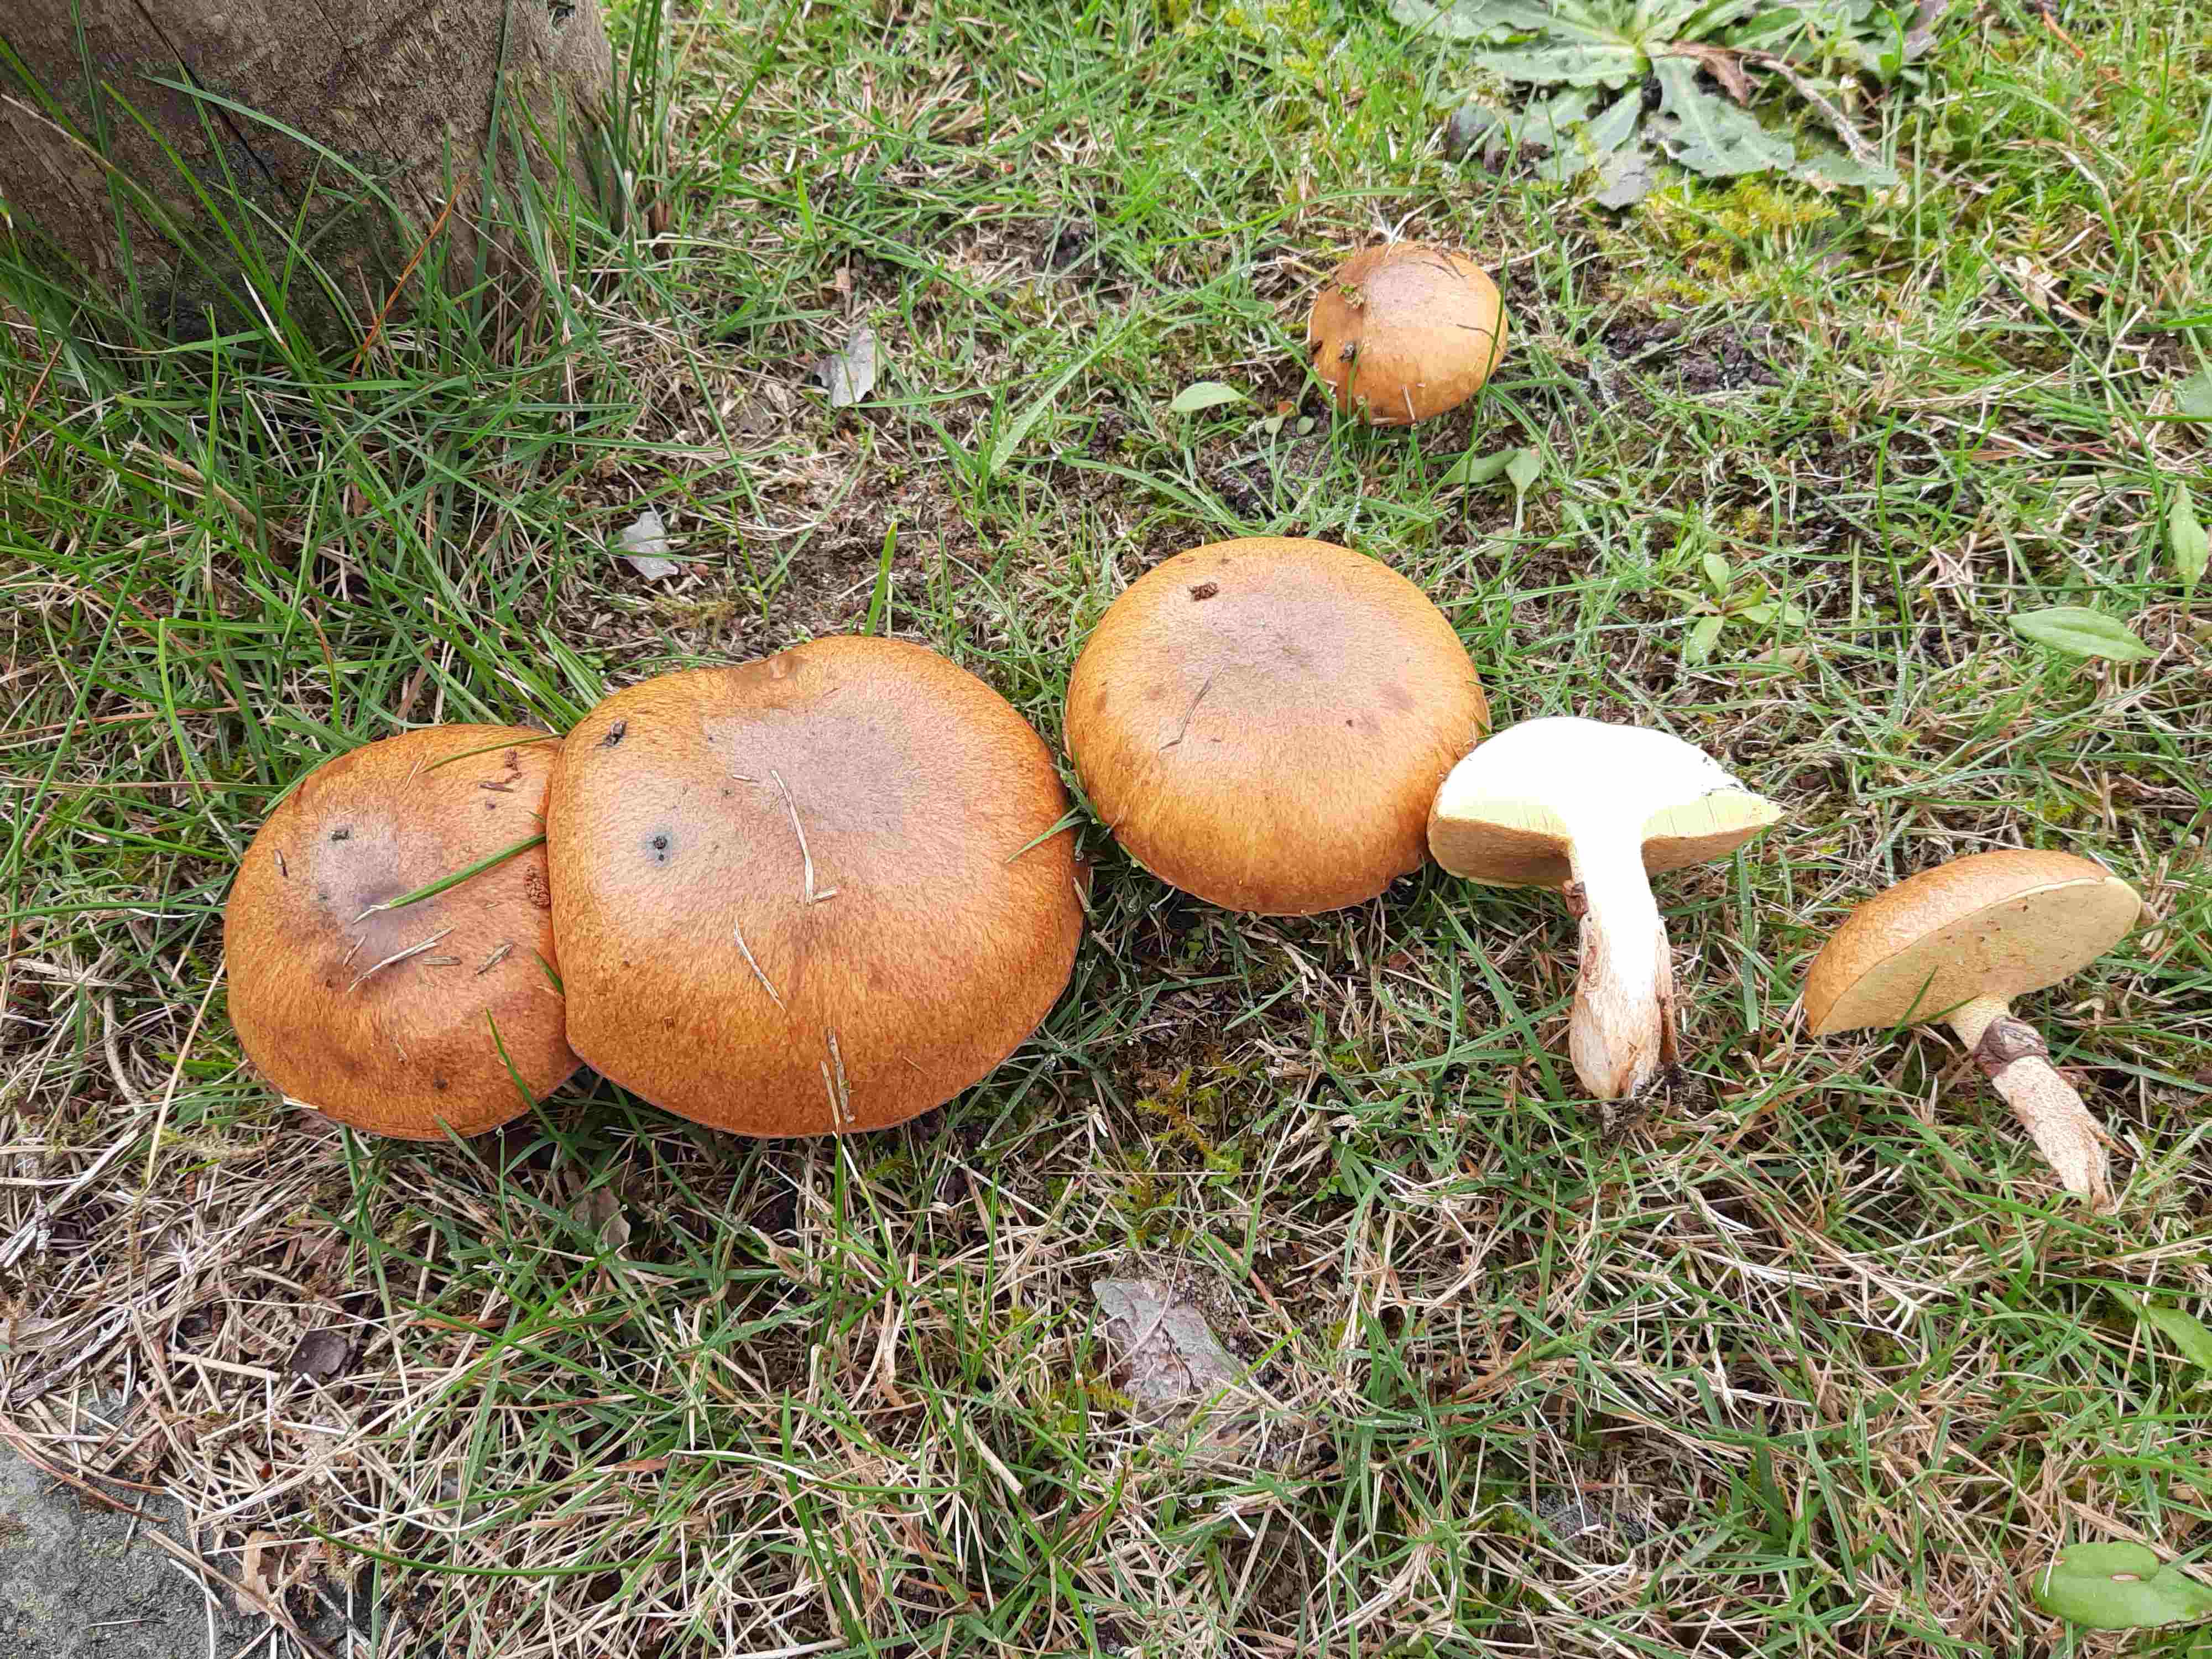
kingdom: Fungi
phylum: Basidiomycota
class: Agaricomycetes
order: Boletales
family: Suillaceae
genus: Suillus
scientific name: Suillus luteus
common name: brungul slimrørhat
